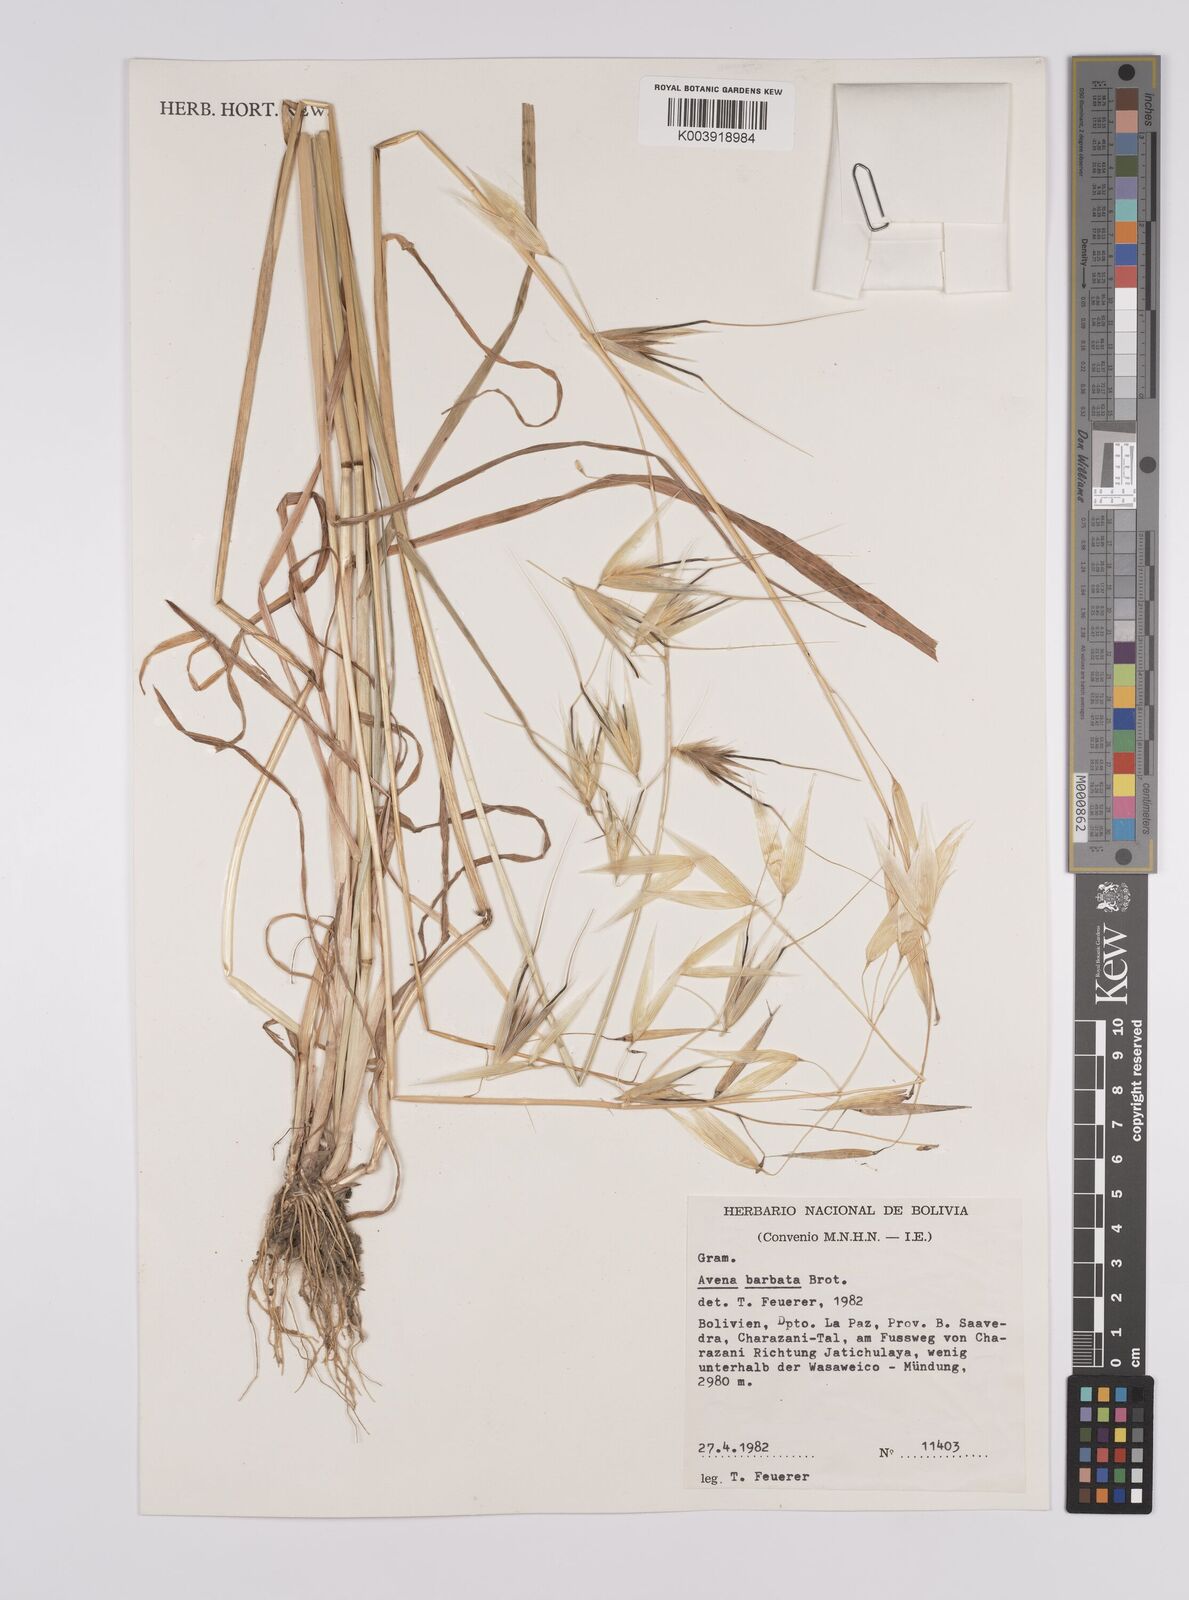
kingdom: Plantae
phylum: Tracheophyta
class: Liliopsida
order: Poales
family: Poaceae
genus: Avena
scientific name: Avena barbata
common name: Slender oat
